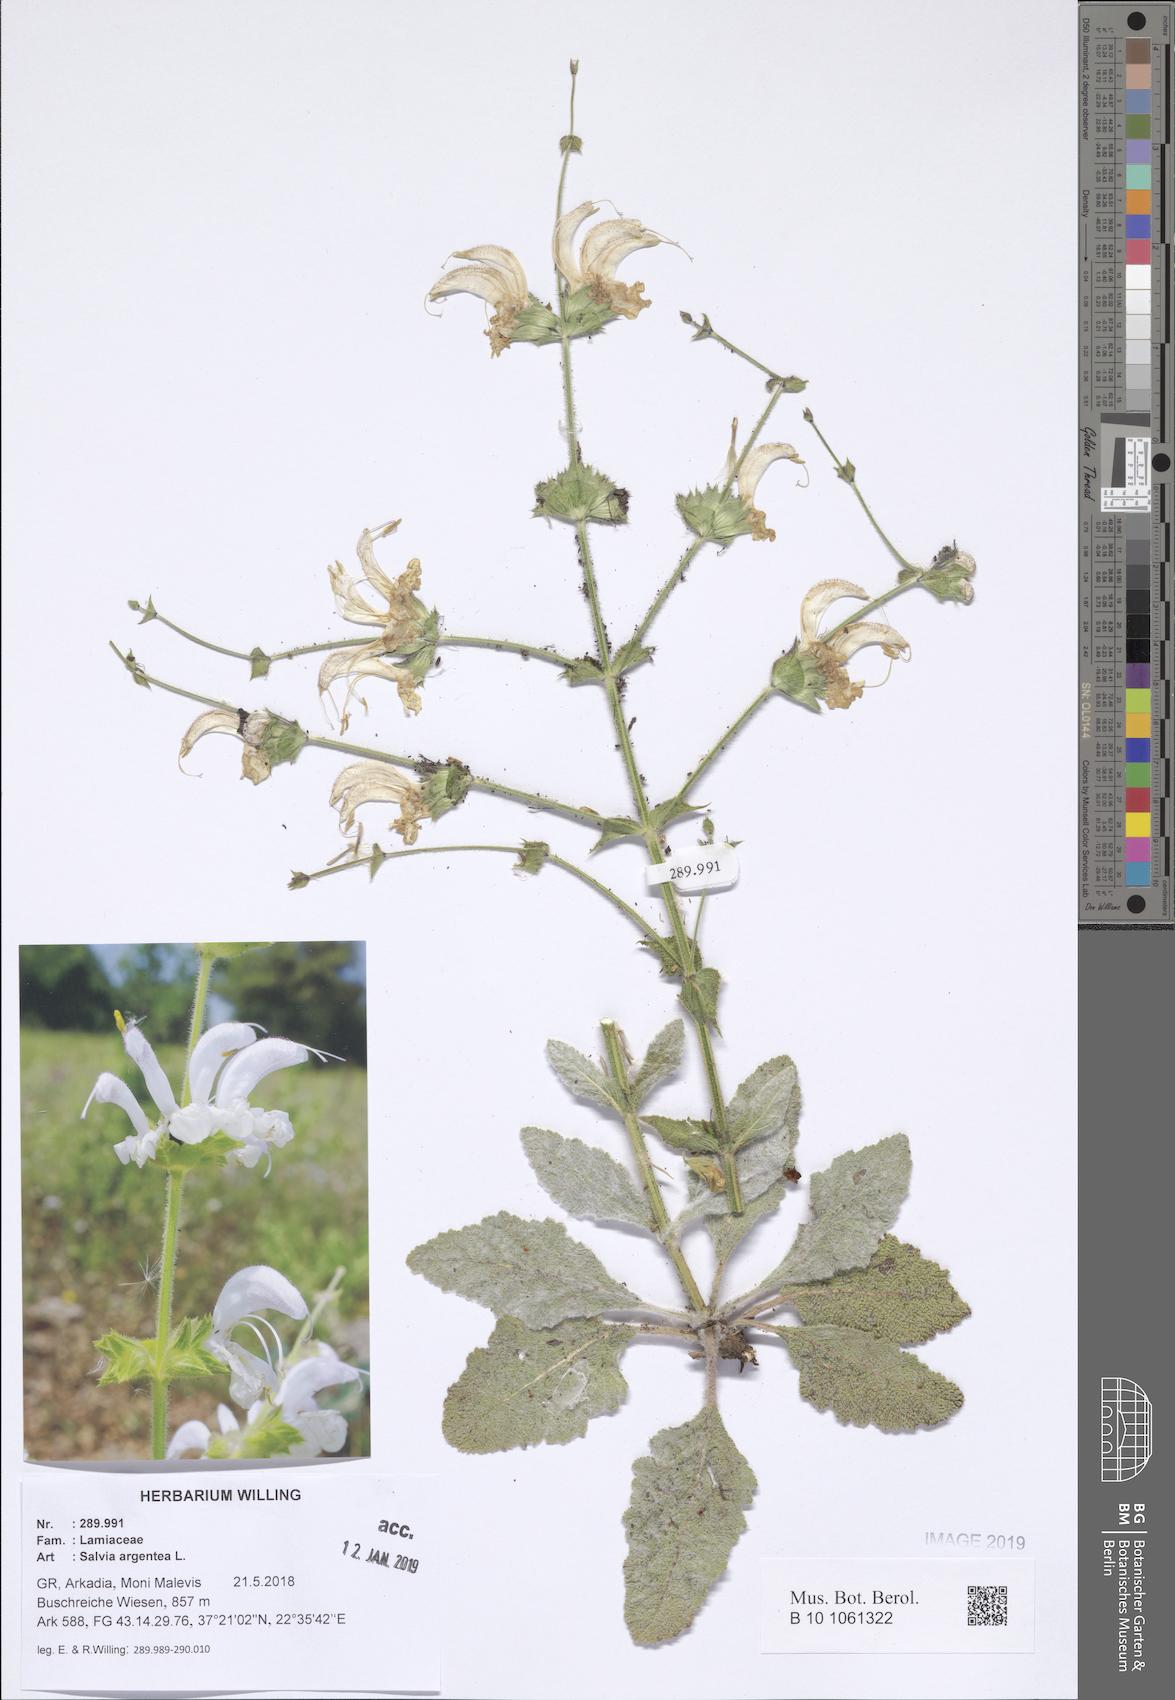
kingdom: Plantae
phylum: Tracheophyta
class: Magnoliopsida
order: Lamiales
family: Lamiaceae
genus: Salvia
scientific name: Salvia argentea
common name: Silver sage
